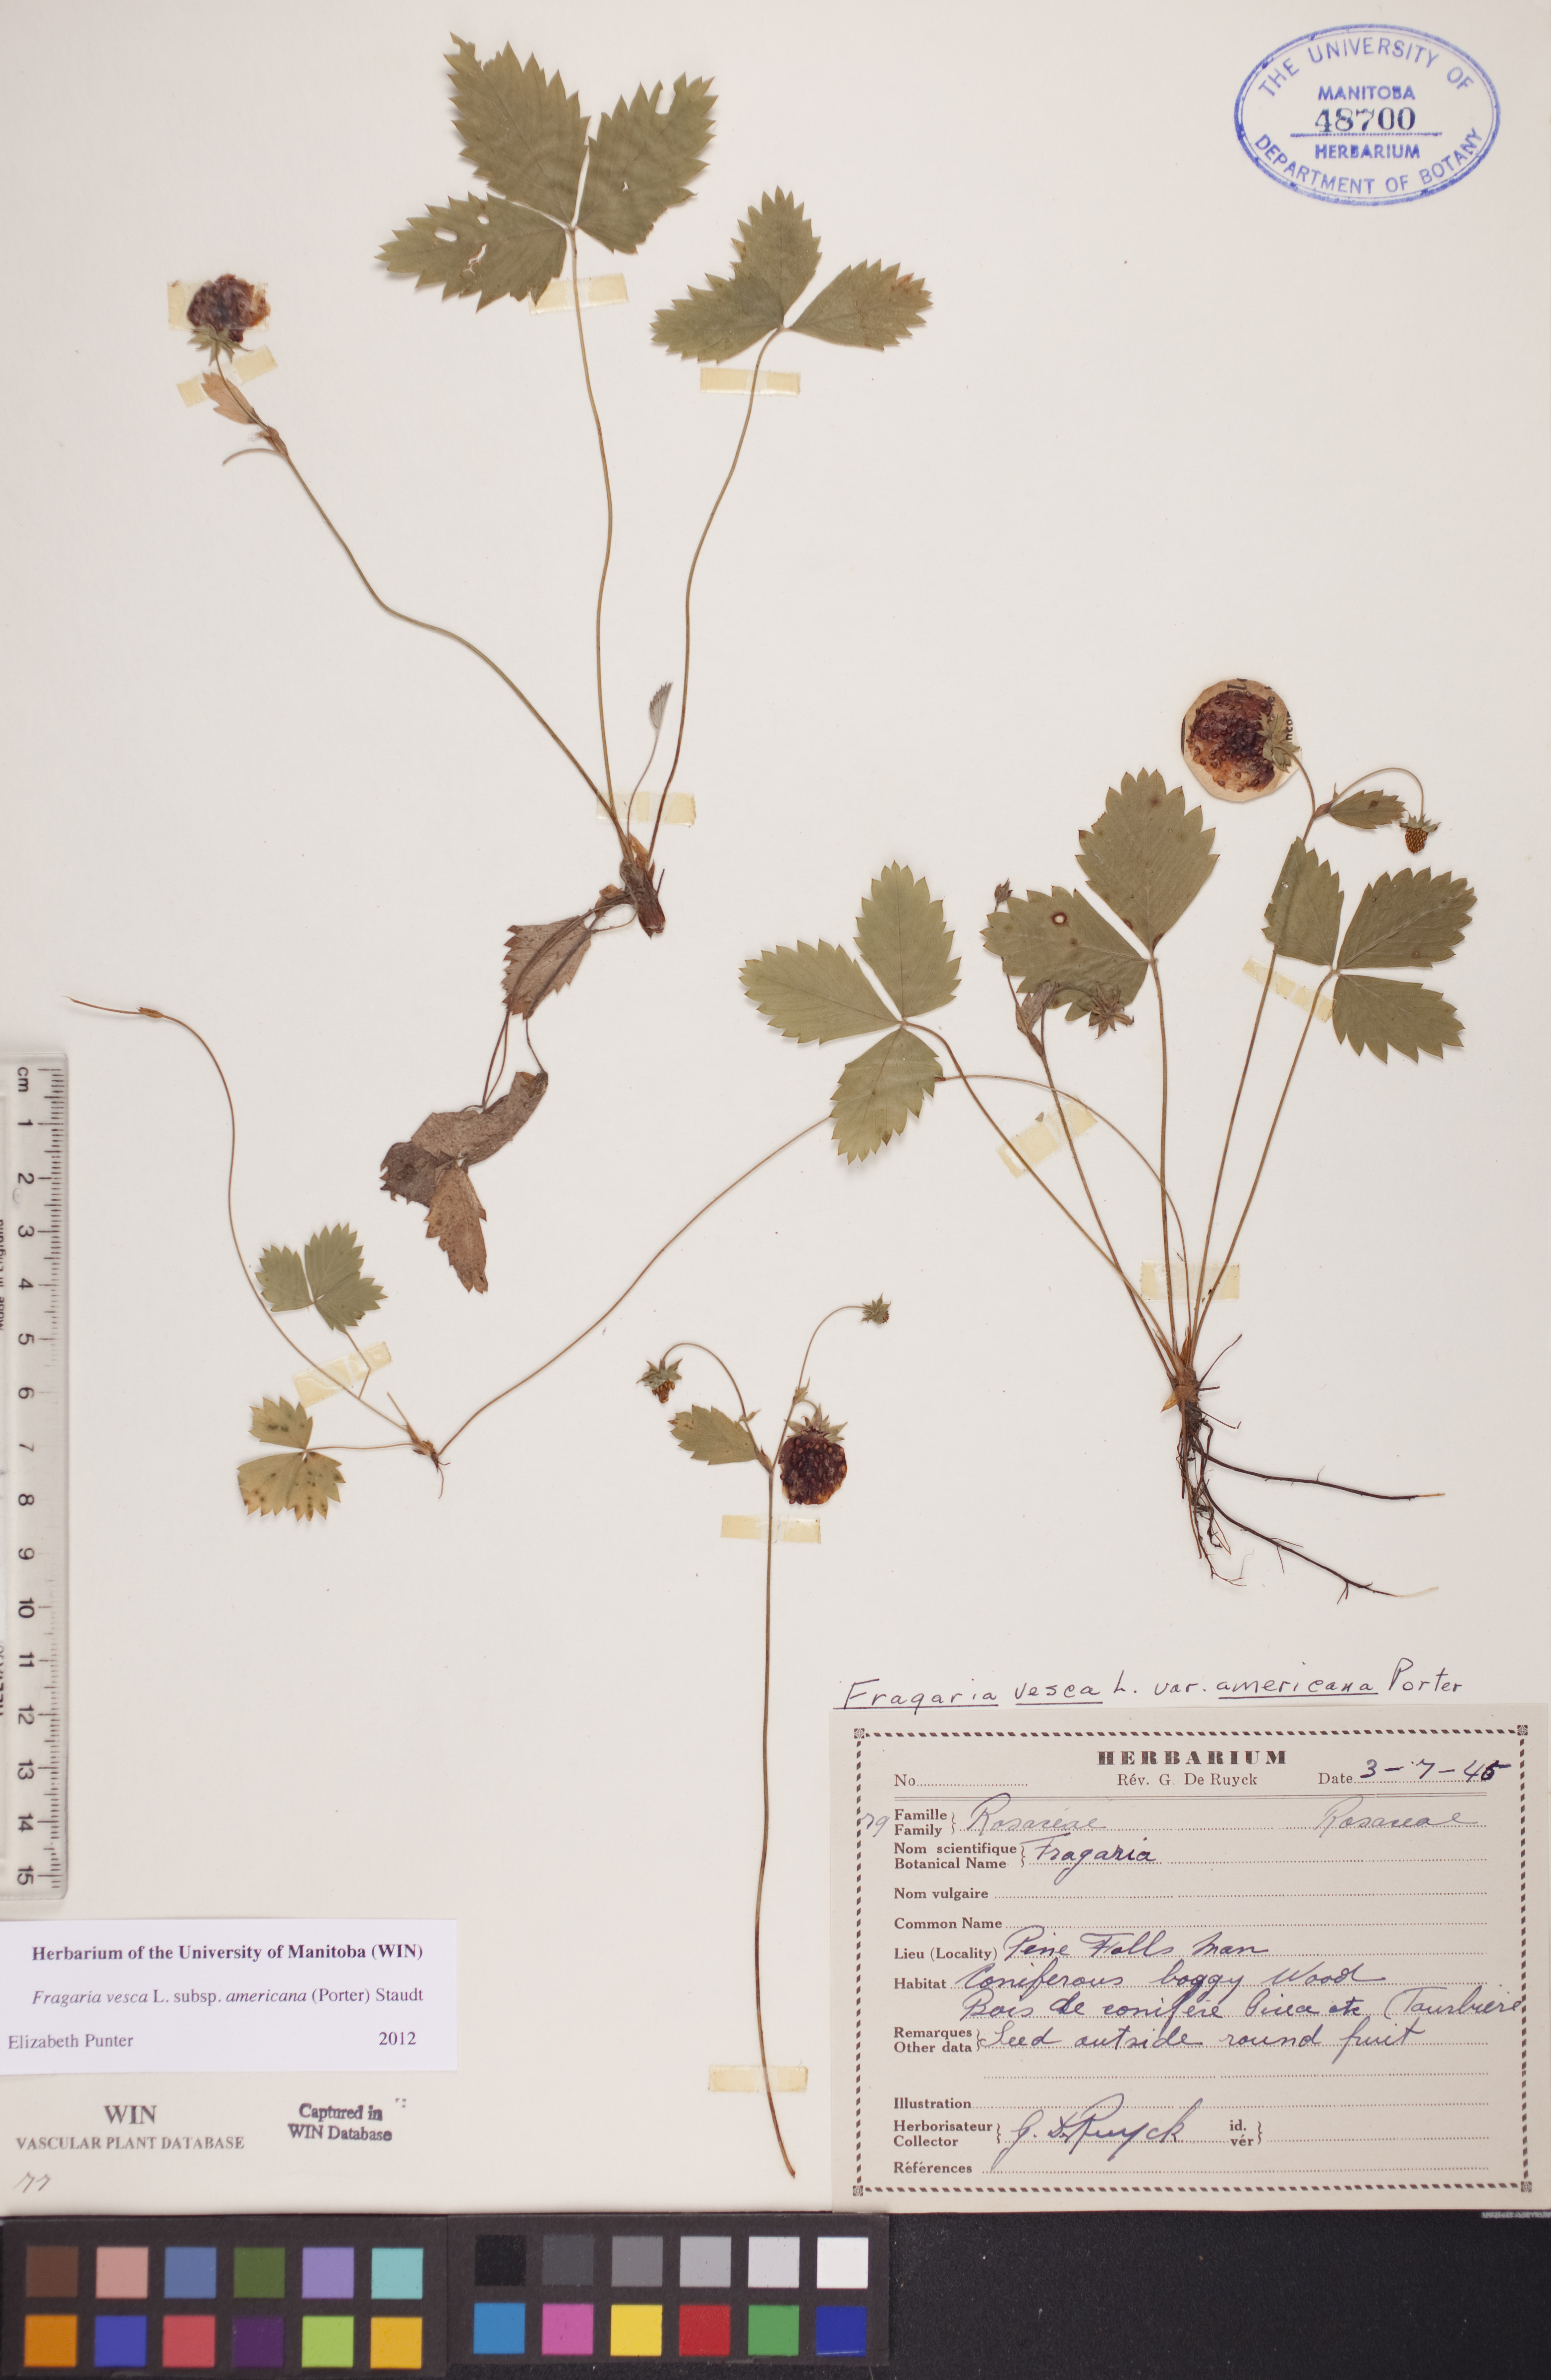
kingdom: Plantae
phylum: Tracheophyta
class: Magnoliopsida
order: Rosales
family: Rosaceae
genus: Fragaria
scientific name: Fragaria vesca
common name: Wild strawberry
